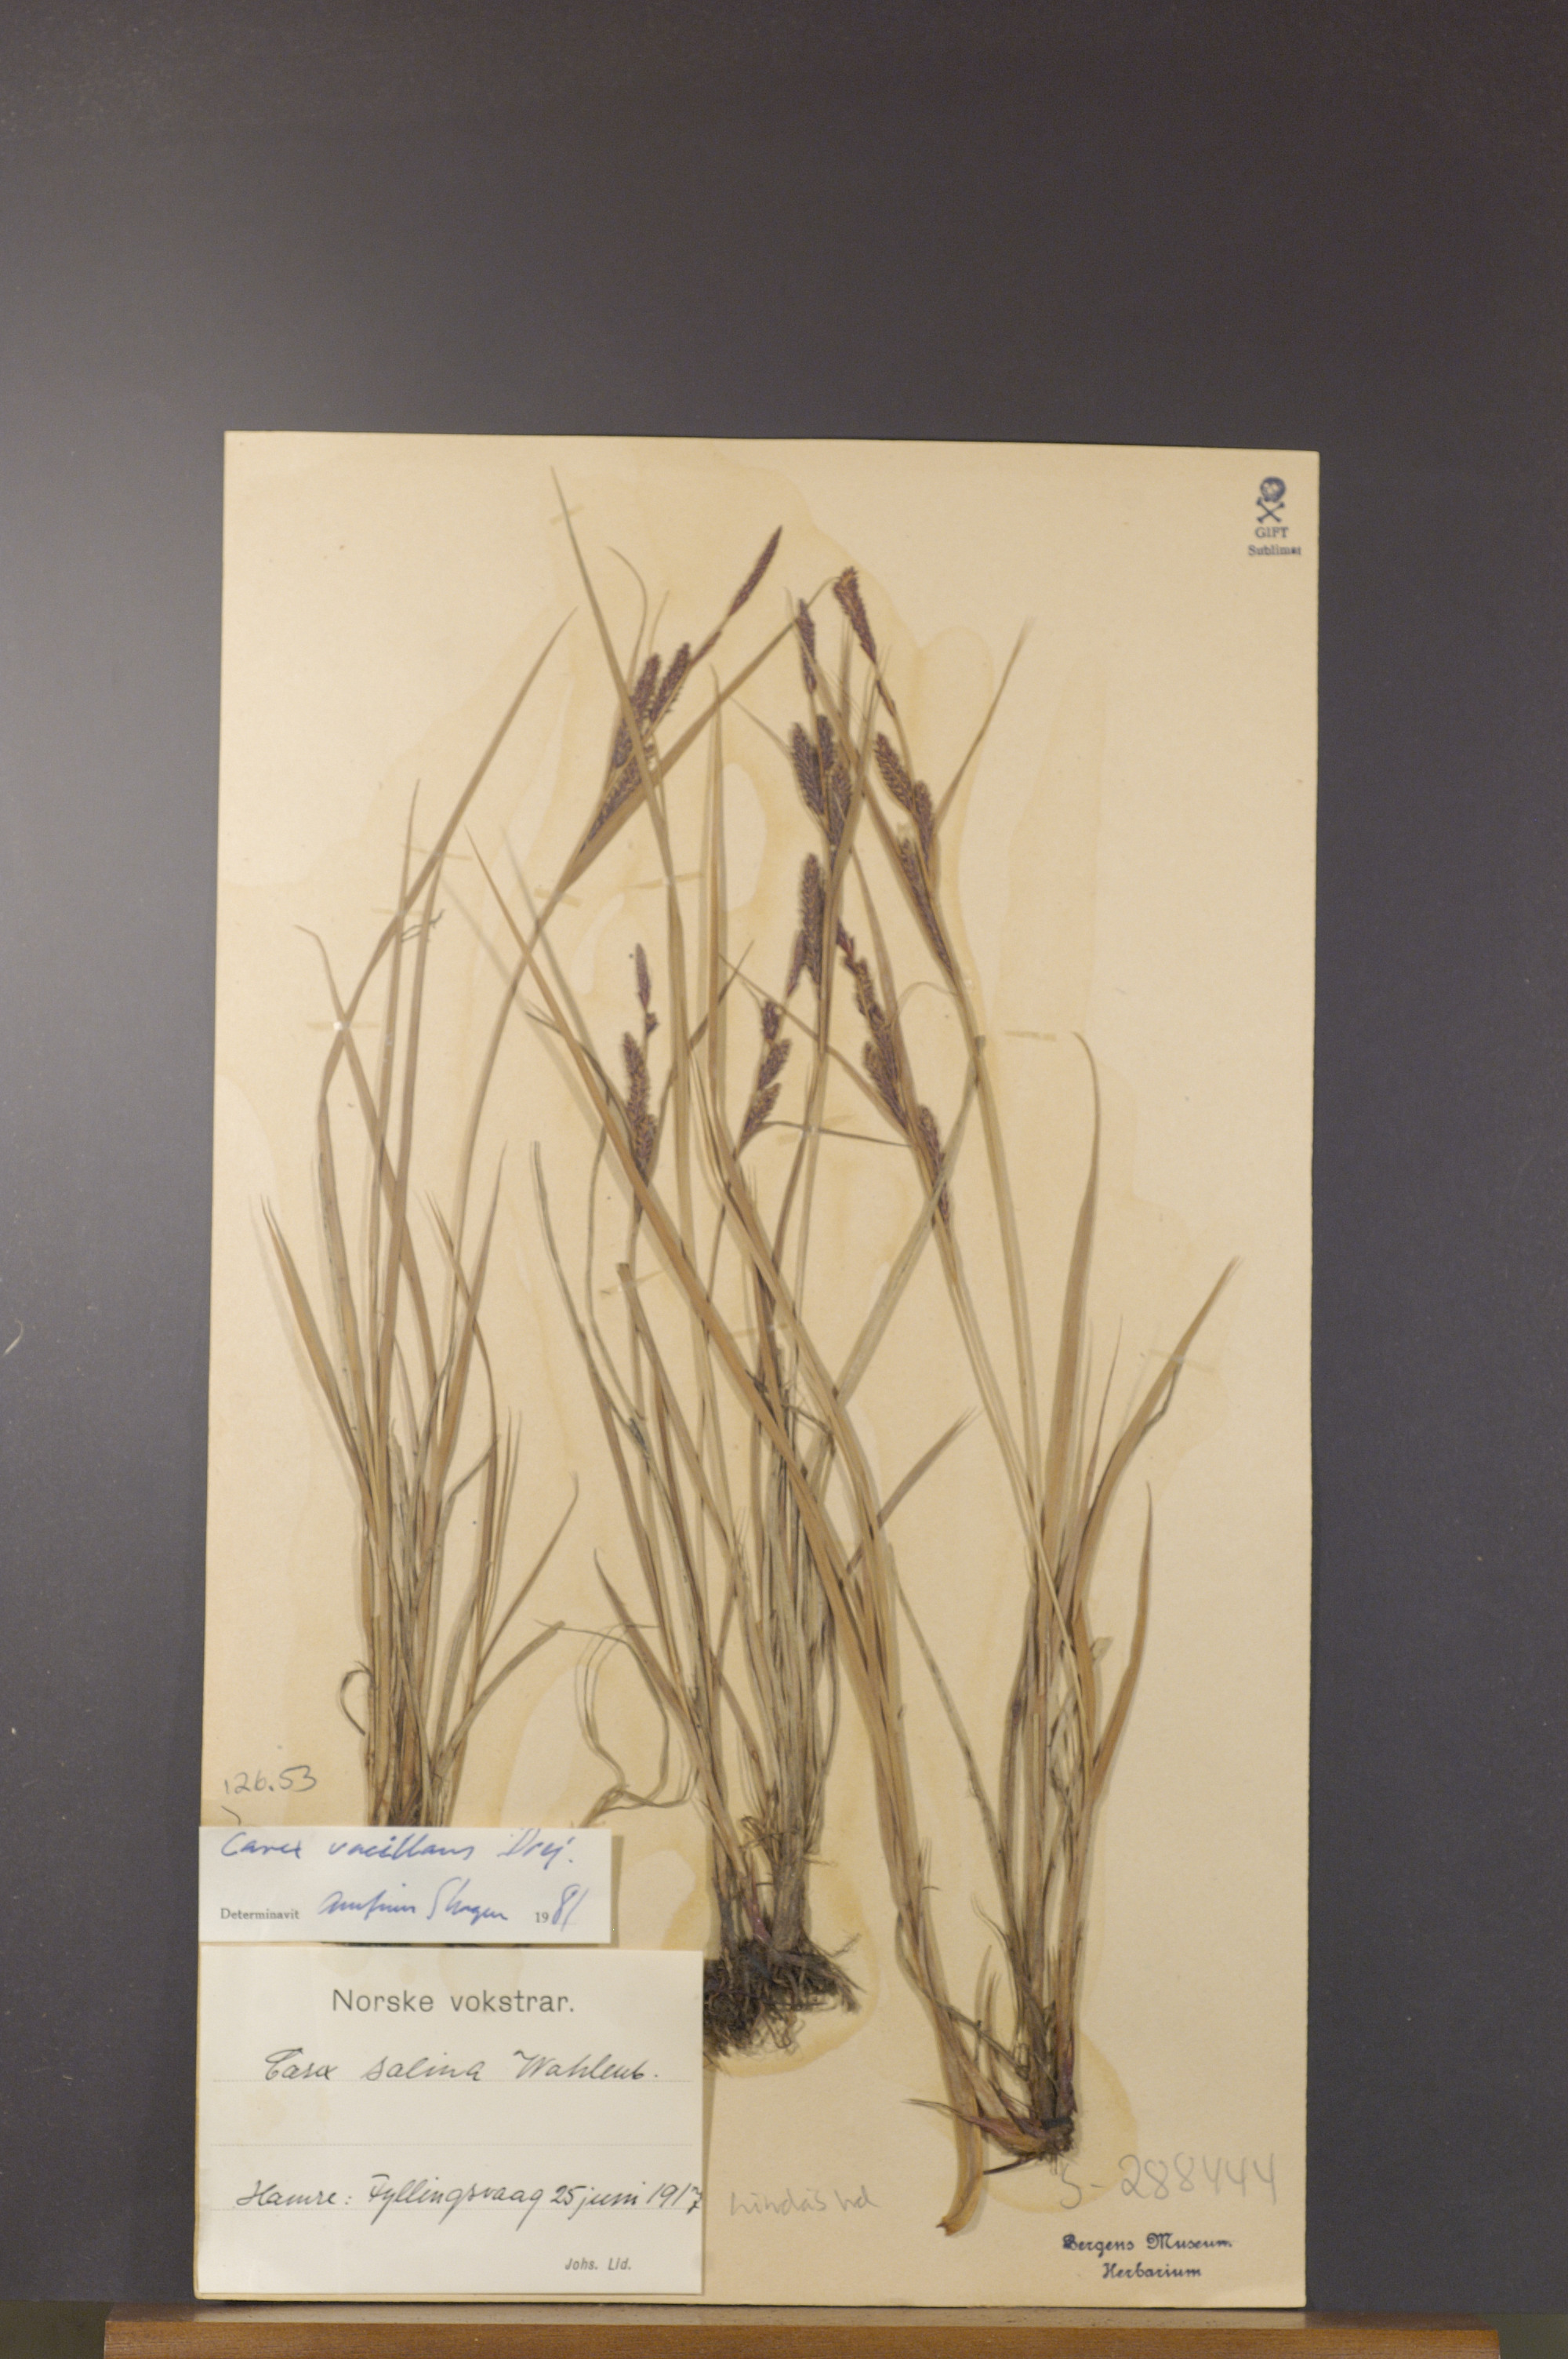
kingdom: Plantae
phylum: Tracheophyta
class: Liliopsida
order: Poales
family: Cyperaceae
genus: Carex
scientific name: Carex vacillans
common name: Sedge
